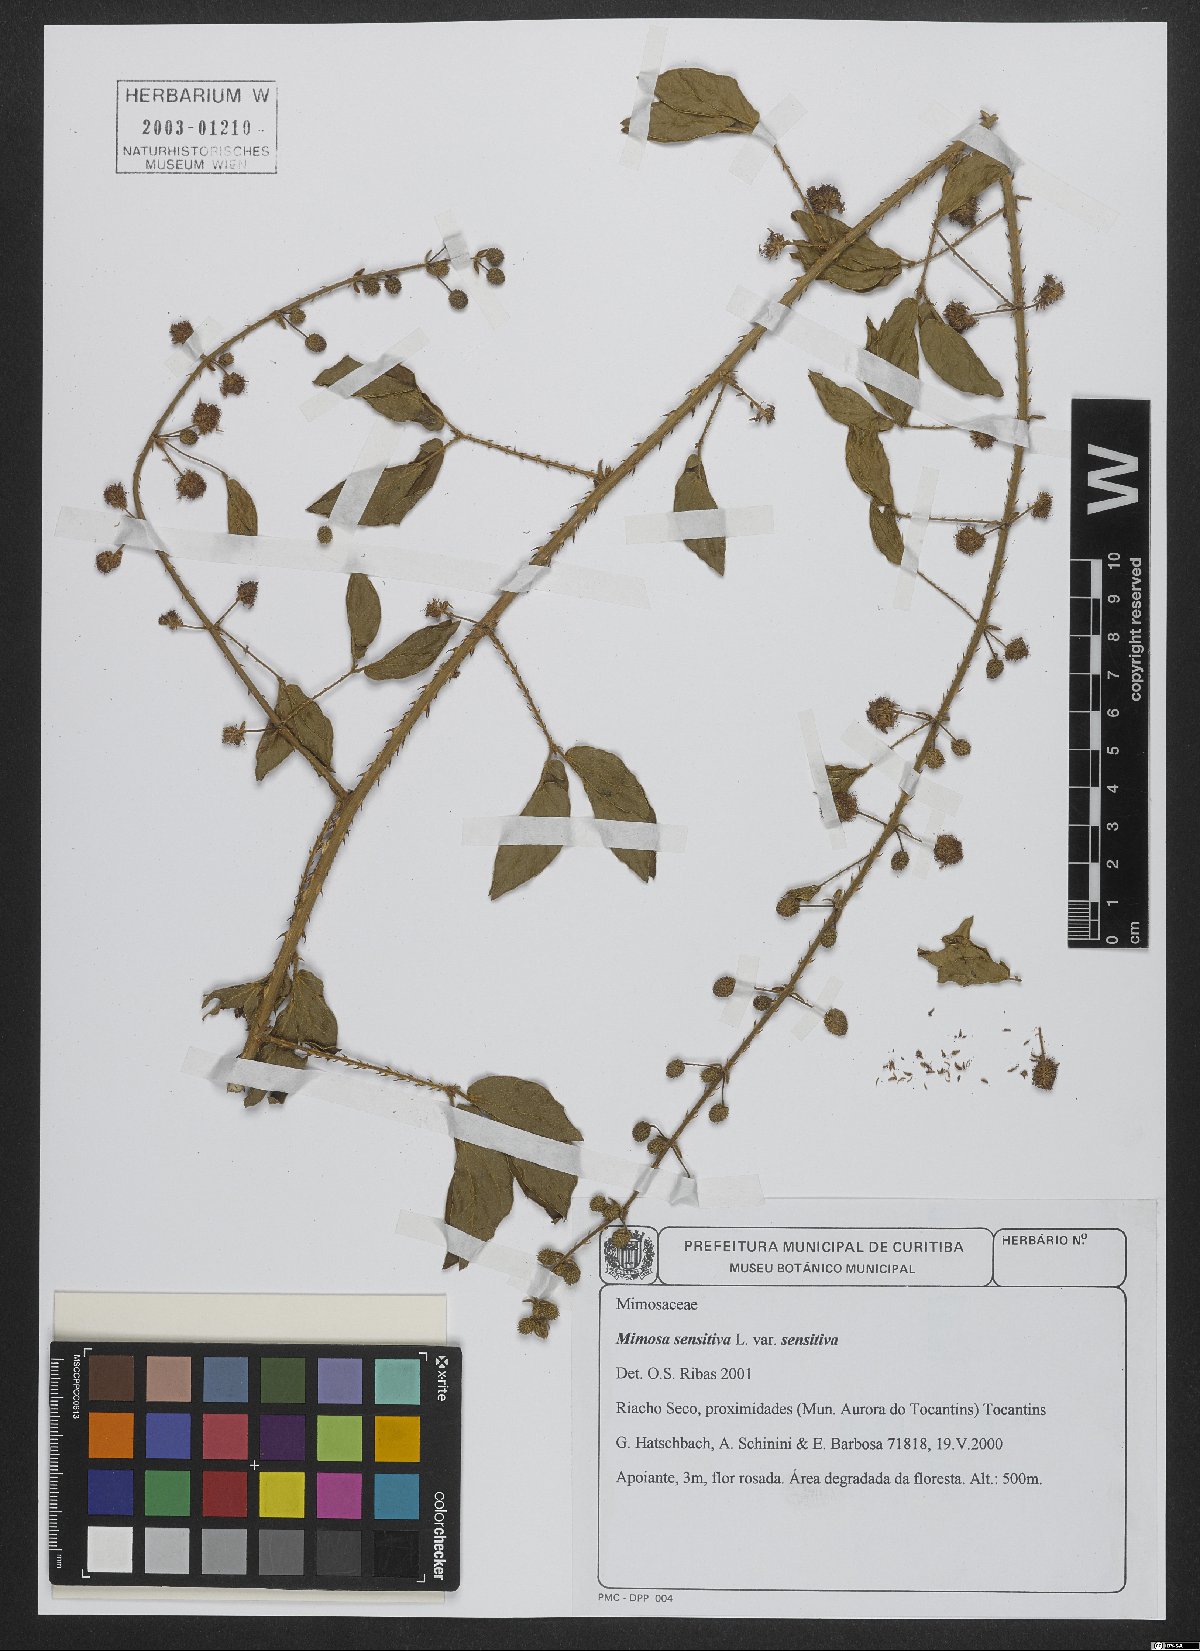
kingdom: Plantae
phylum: Tracheophyta
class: Magnoliopsida
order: Fabales
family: Fabaceae
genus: Mimosa
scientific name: Mimosa sensitiva
